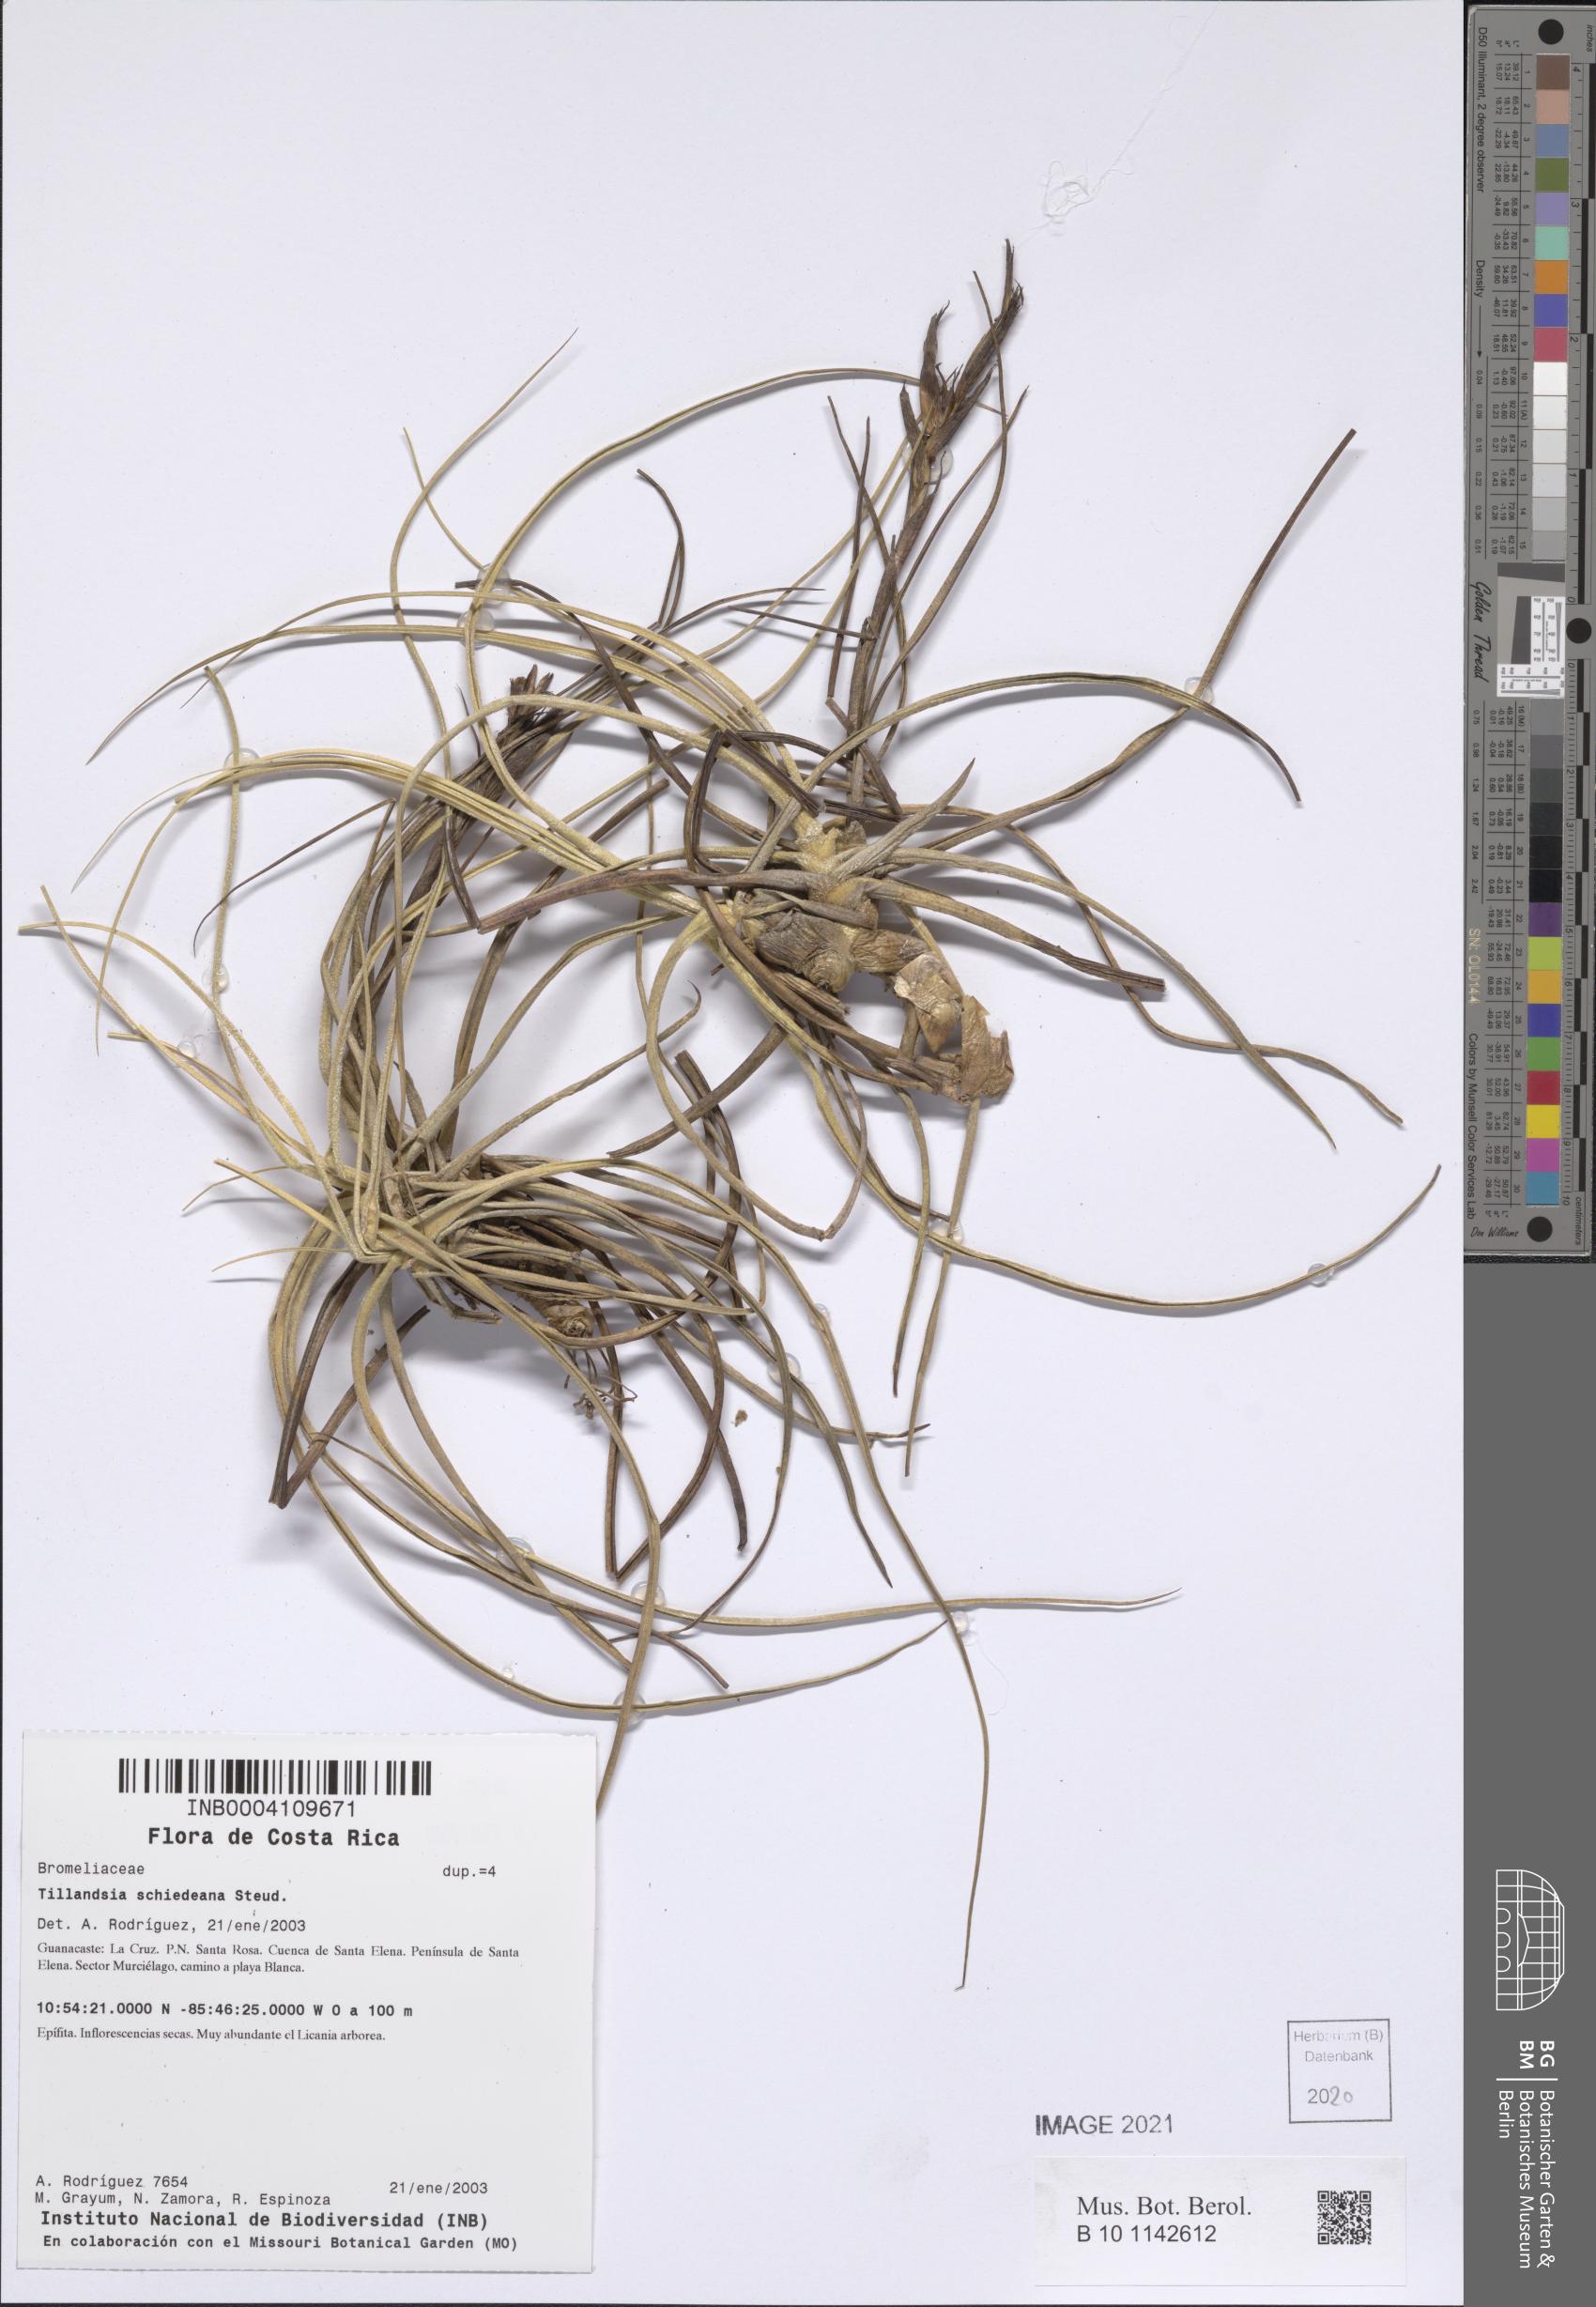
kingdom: Plantae
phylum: Tracheophyta
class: Liliopsida
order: Poales
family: Bromeliaceae
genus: Tillandsia
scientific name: Tillandsia schiedeana
